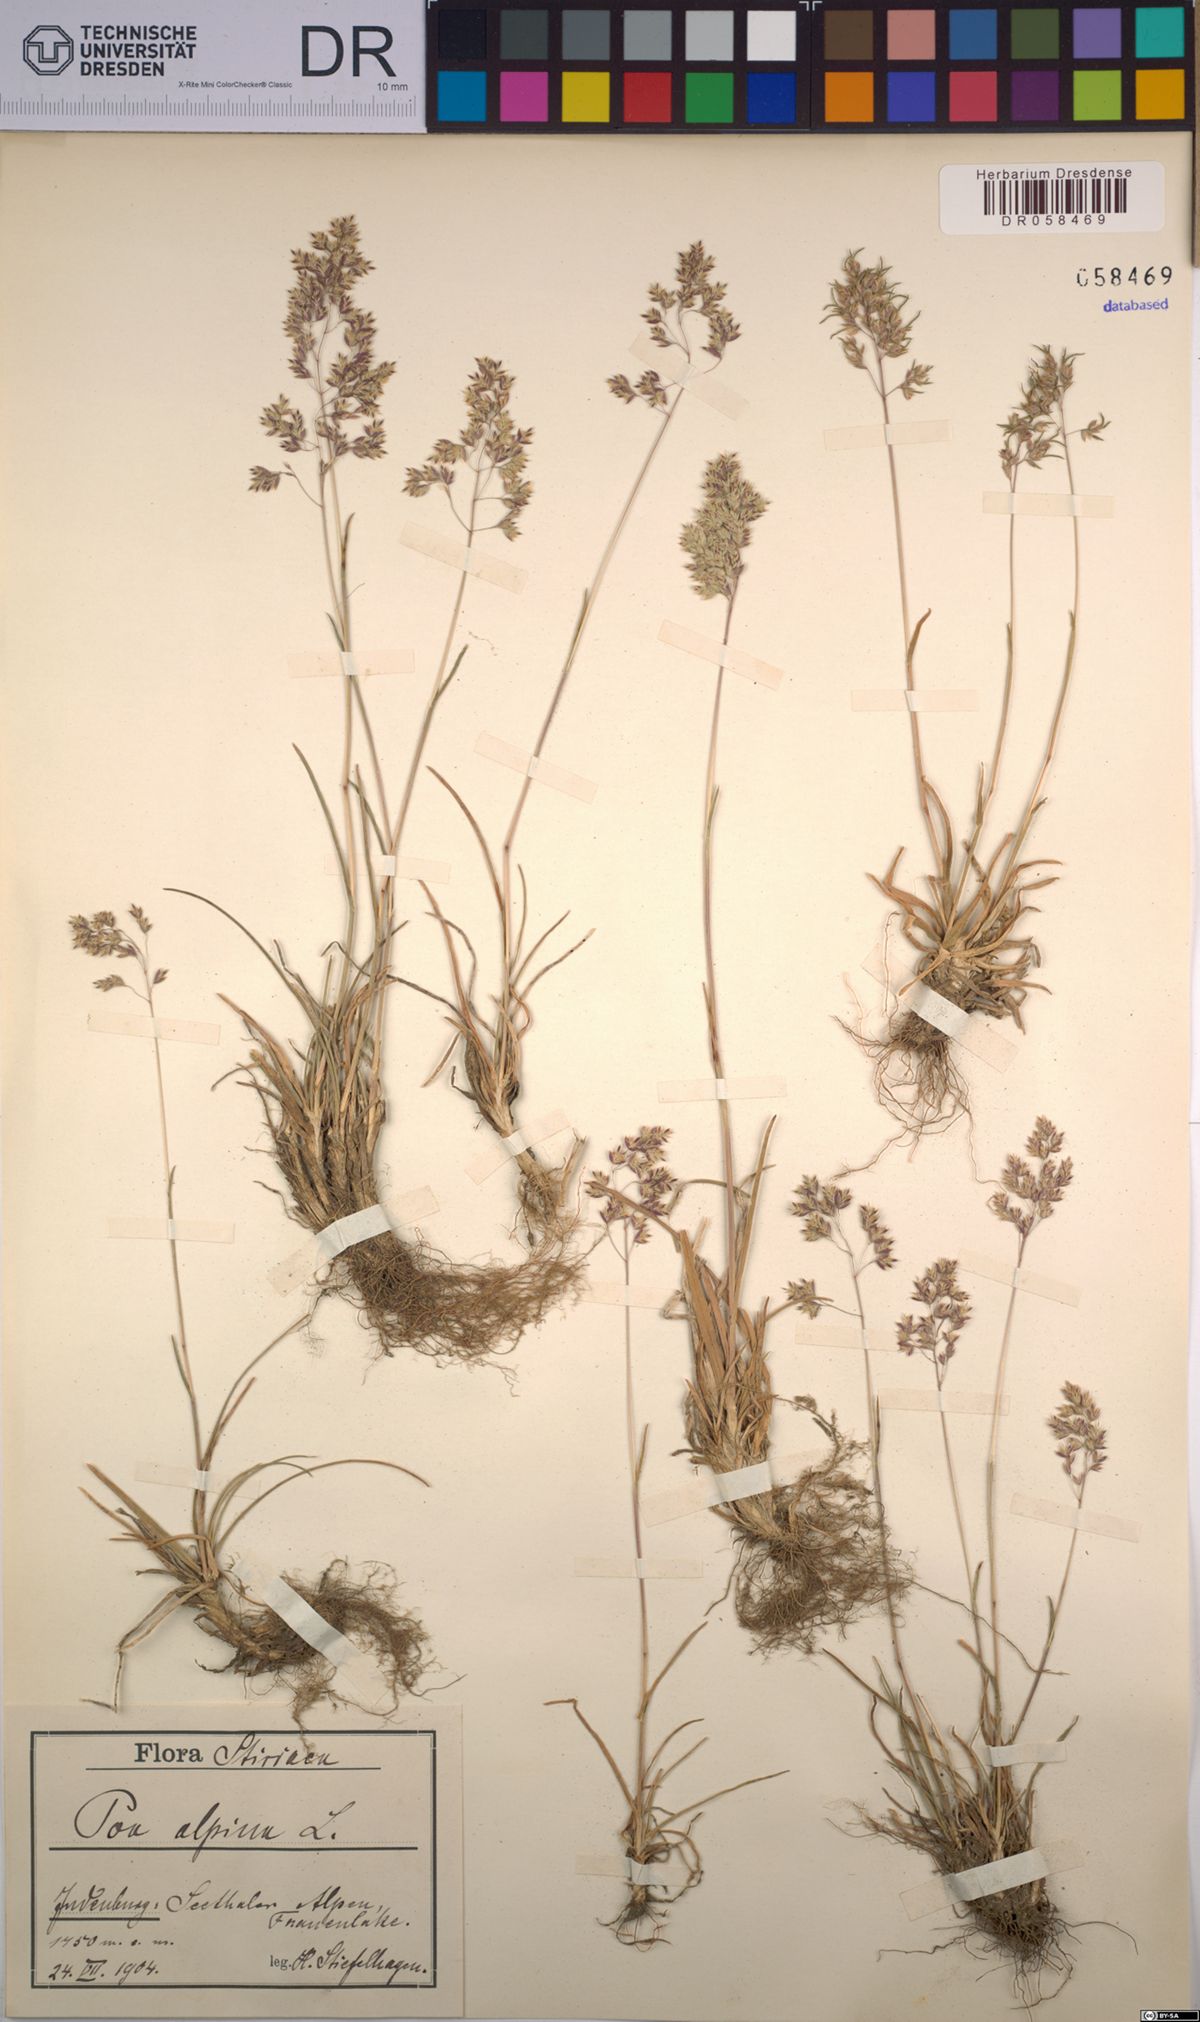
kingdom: Plantae
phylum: Tracheophyta
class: Liliopsida
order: Poales
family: Poaceae
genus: Poa
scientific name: Poa alpina
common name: Alpine bluegrass
